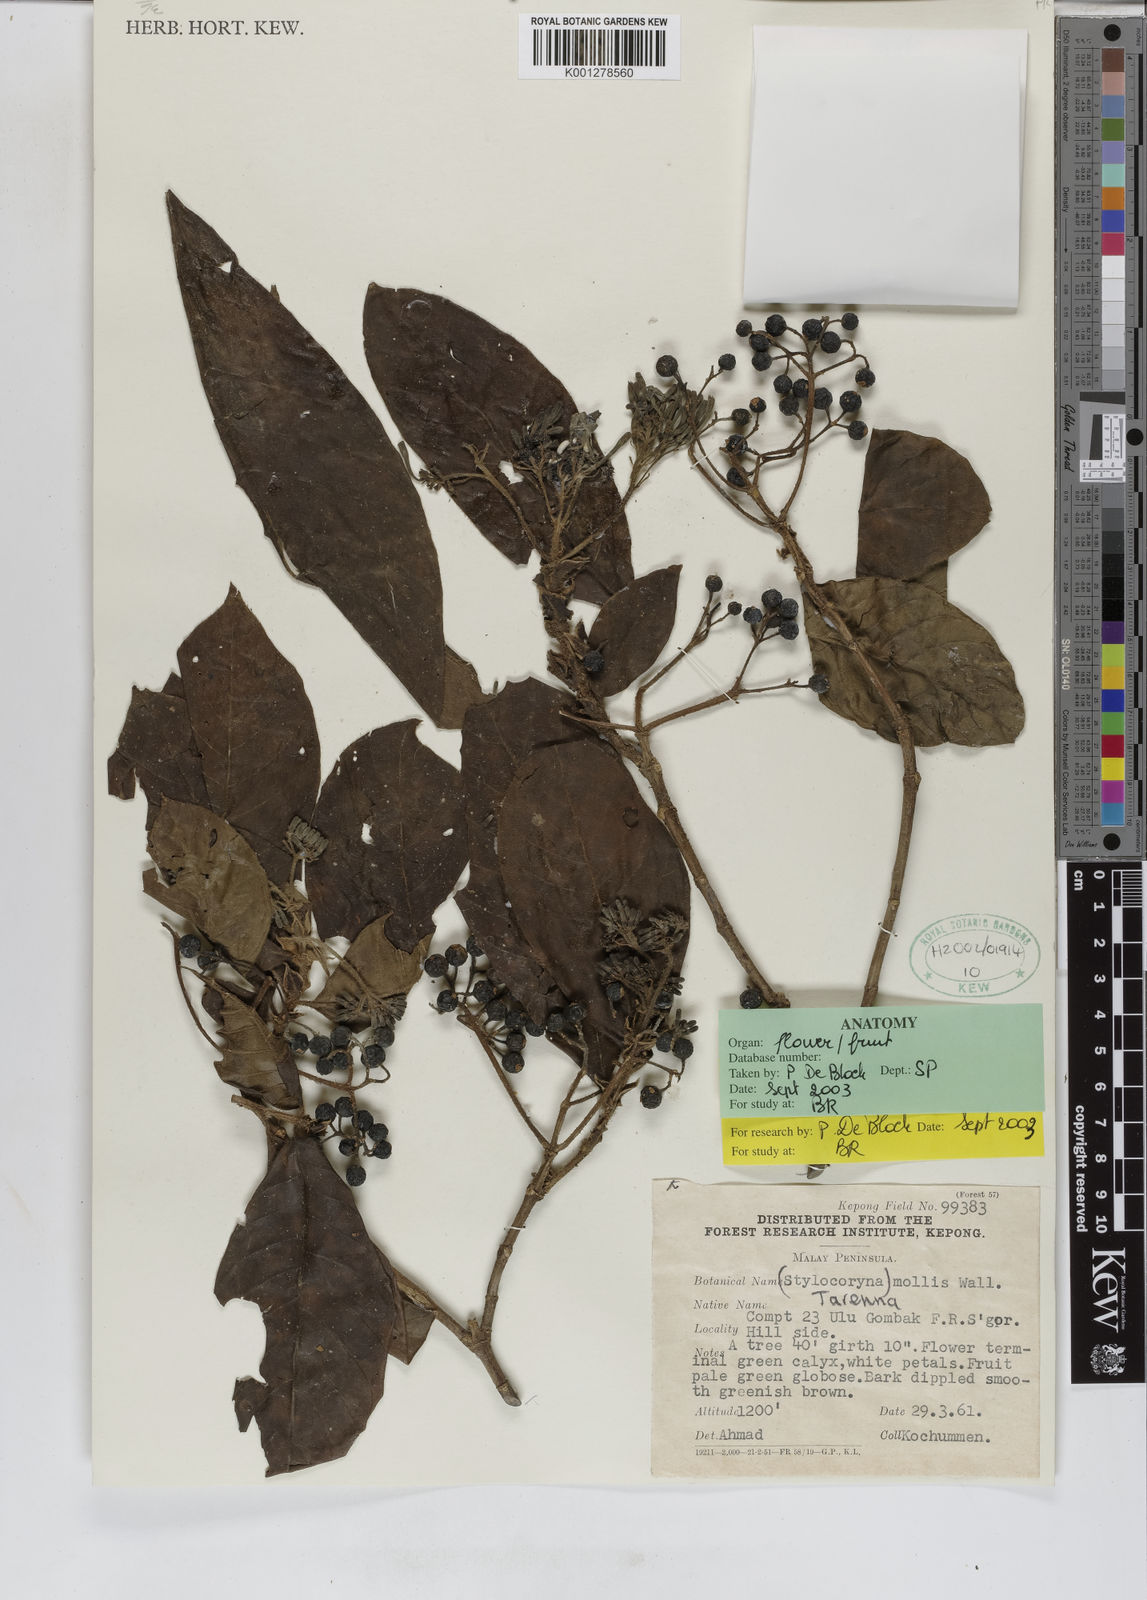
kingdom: Plantae
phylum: Tracheophyta
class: Magnoliopsida
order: Gentianales
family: Rubiaceae
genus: Tarenna
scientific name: Tarenna mollis
